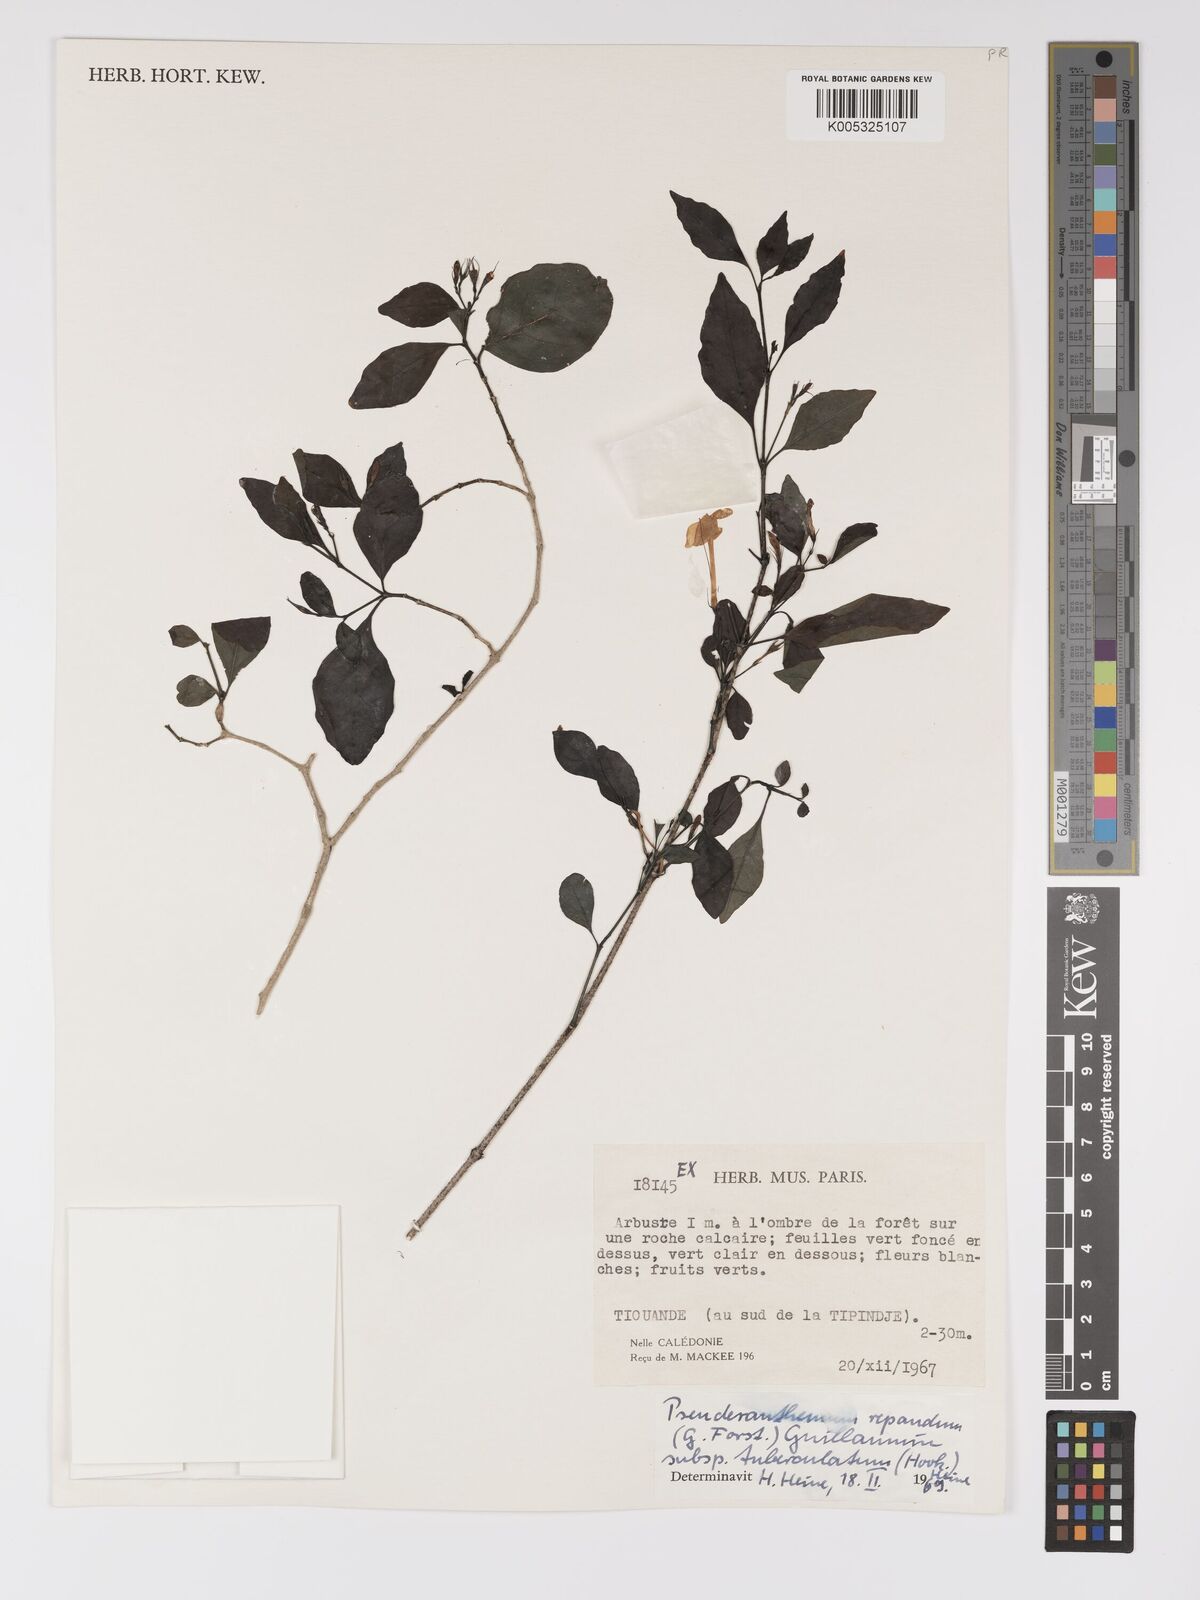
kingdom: Plantae
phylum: Tracheophyta
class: Magnoliopsida
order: Lamiales
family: Acanthaceae
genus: Pseuderanthemum
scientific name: Pseuderanthemum repandum
